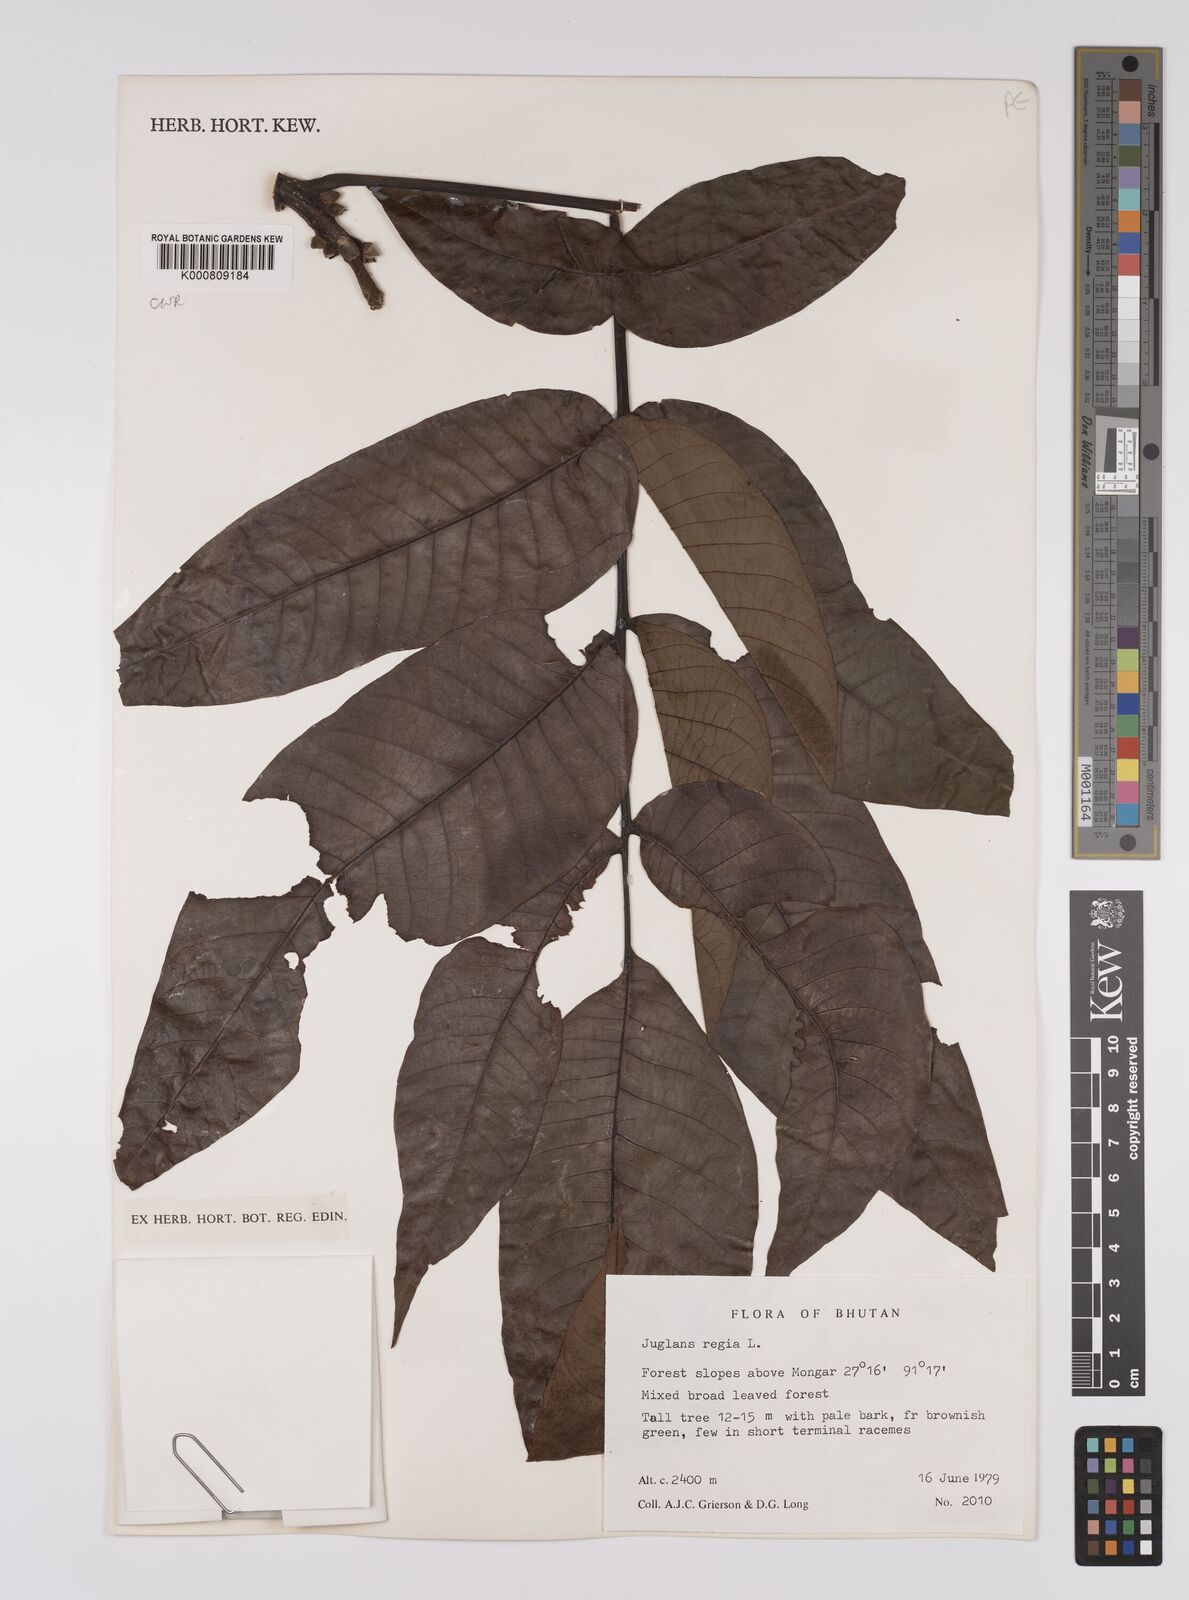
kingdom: Plantae
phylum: Tracheophyta
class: Magnoliopsida
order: Fagales
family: Juglandaceae
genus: Juglans
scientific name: Juglans regia
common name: Walnut
